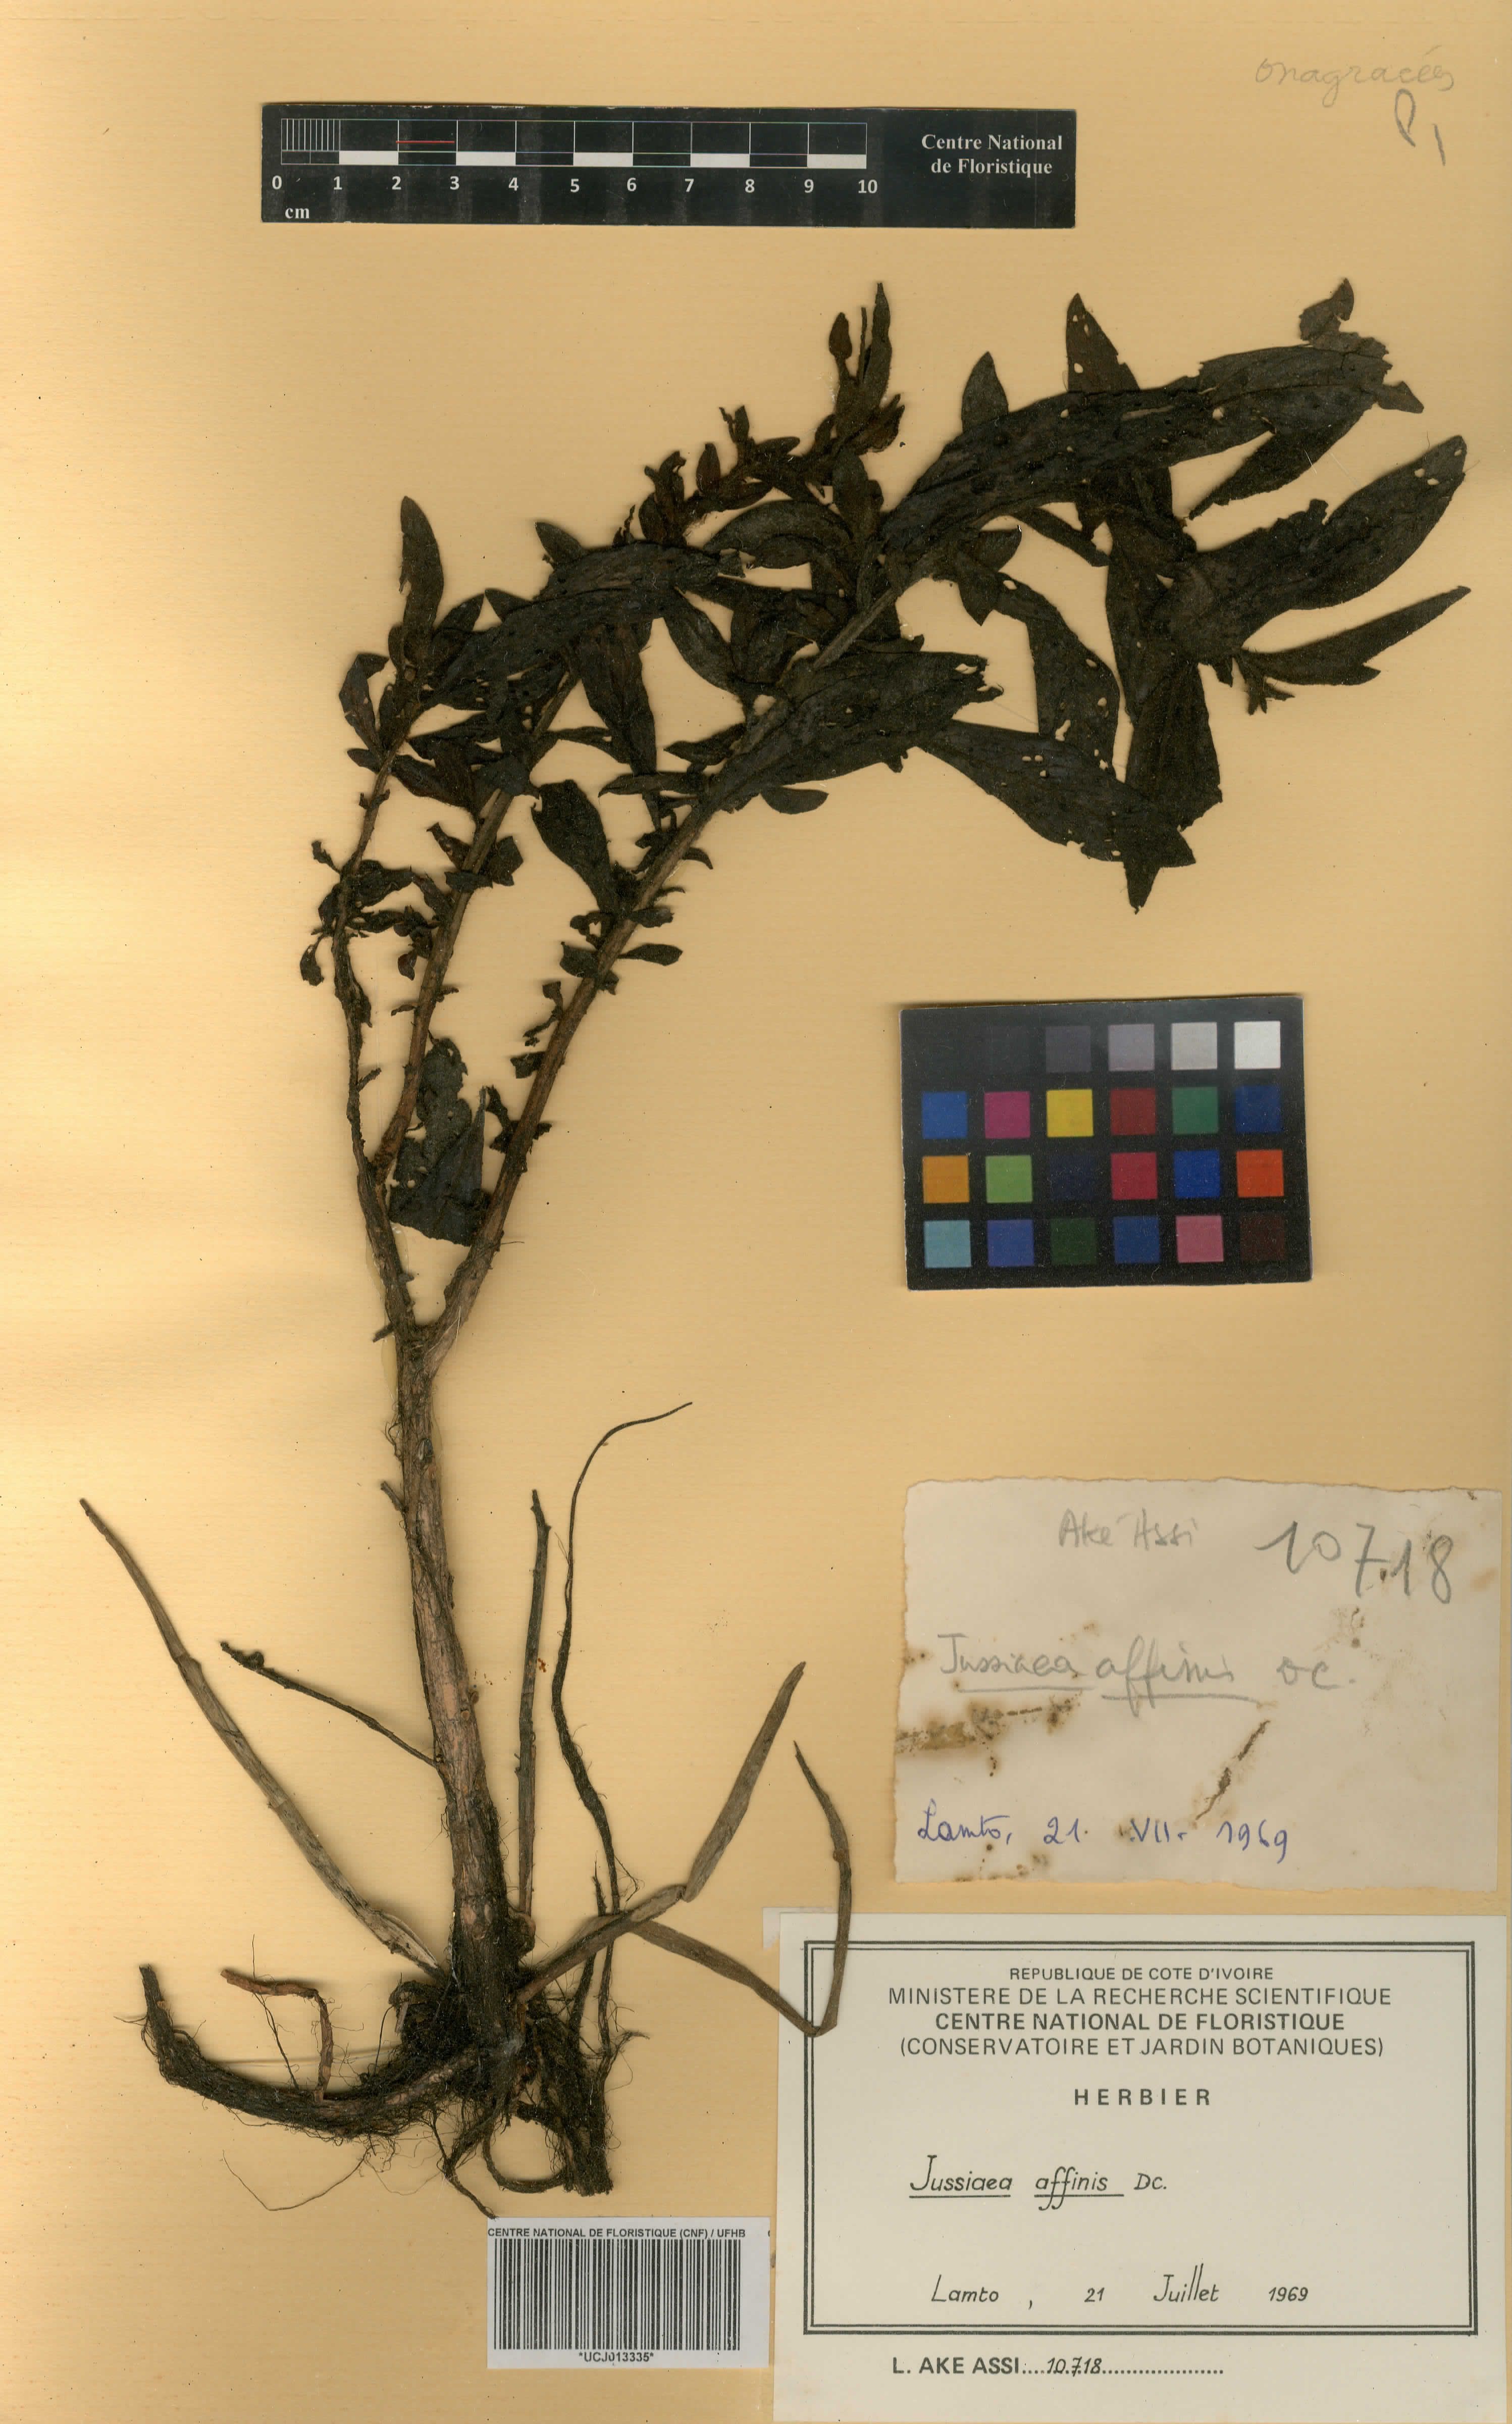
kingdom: Plantae
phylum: Tracheophyta
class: Magnoliopsida
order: Myrtales
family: Onagraceae
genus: Ludwigia
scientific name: Ludwigia affinis
